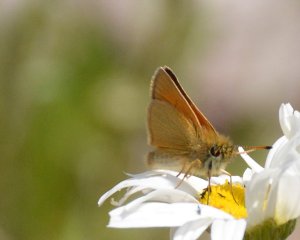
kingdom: Animalia
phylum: Arthropoda
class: Insecta
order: Lepidoptera
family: Hesperiidae
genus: Thymelicus
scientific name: Thymelicus lineola
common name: European Skipper
